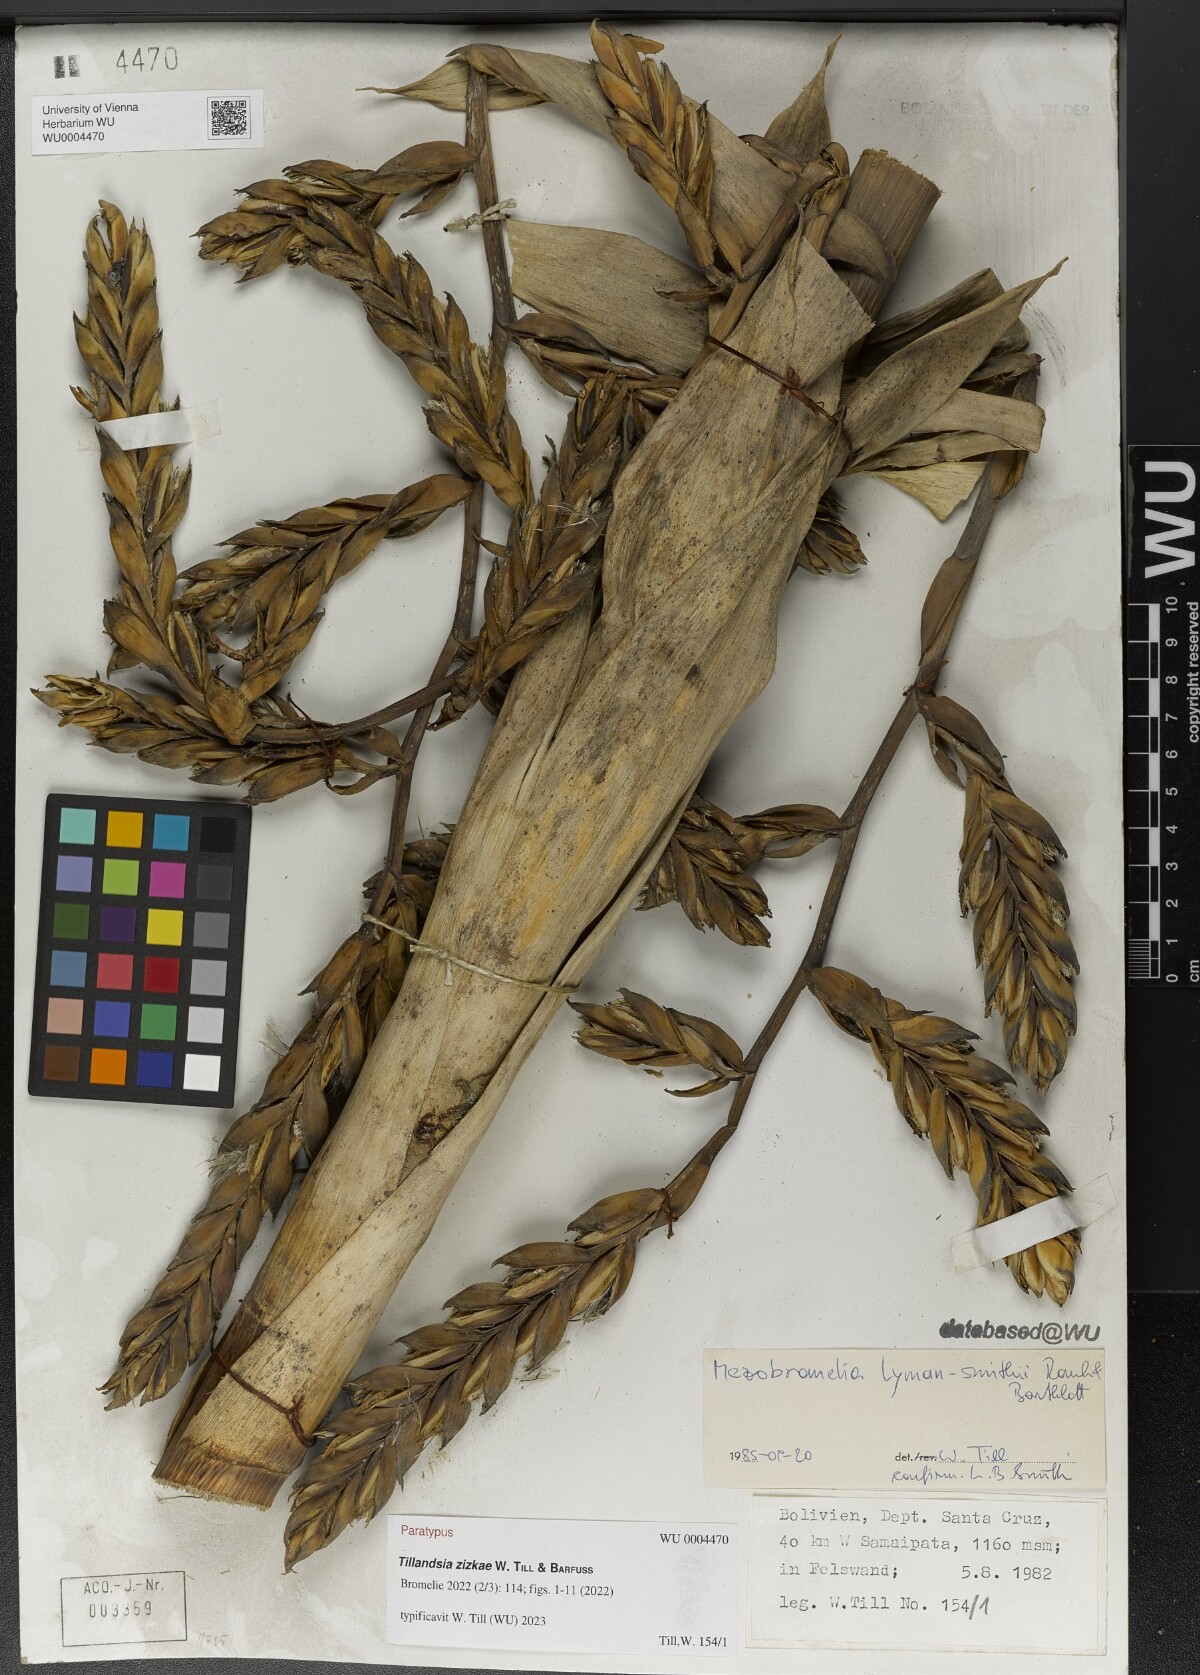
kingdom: Plantae
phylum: Tracheophyta
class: Liliopsida
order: Poales
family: Bromeliaceae
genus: Tillandsia
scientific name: Tillandsia
